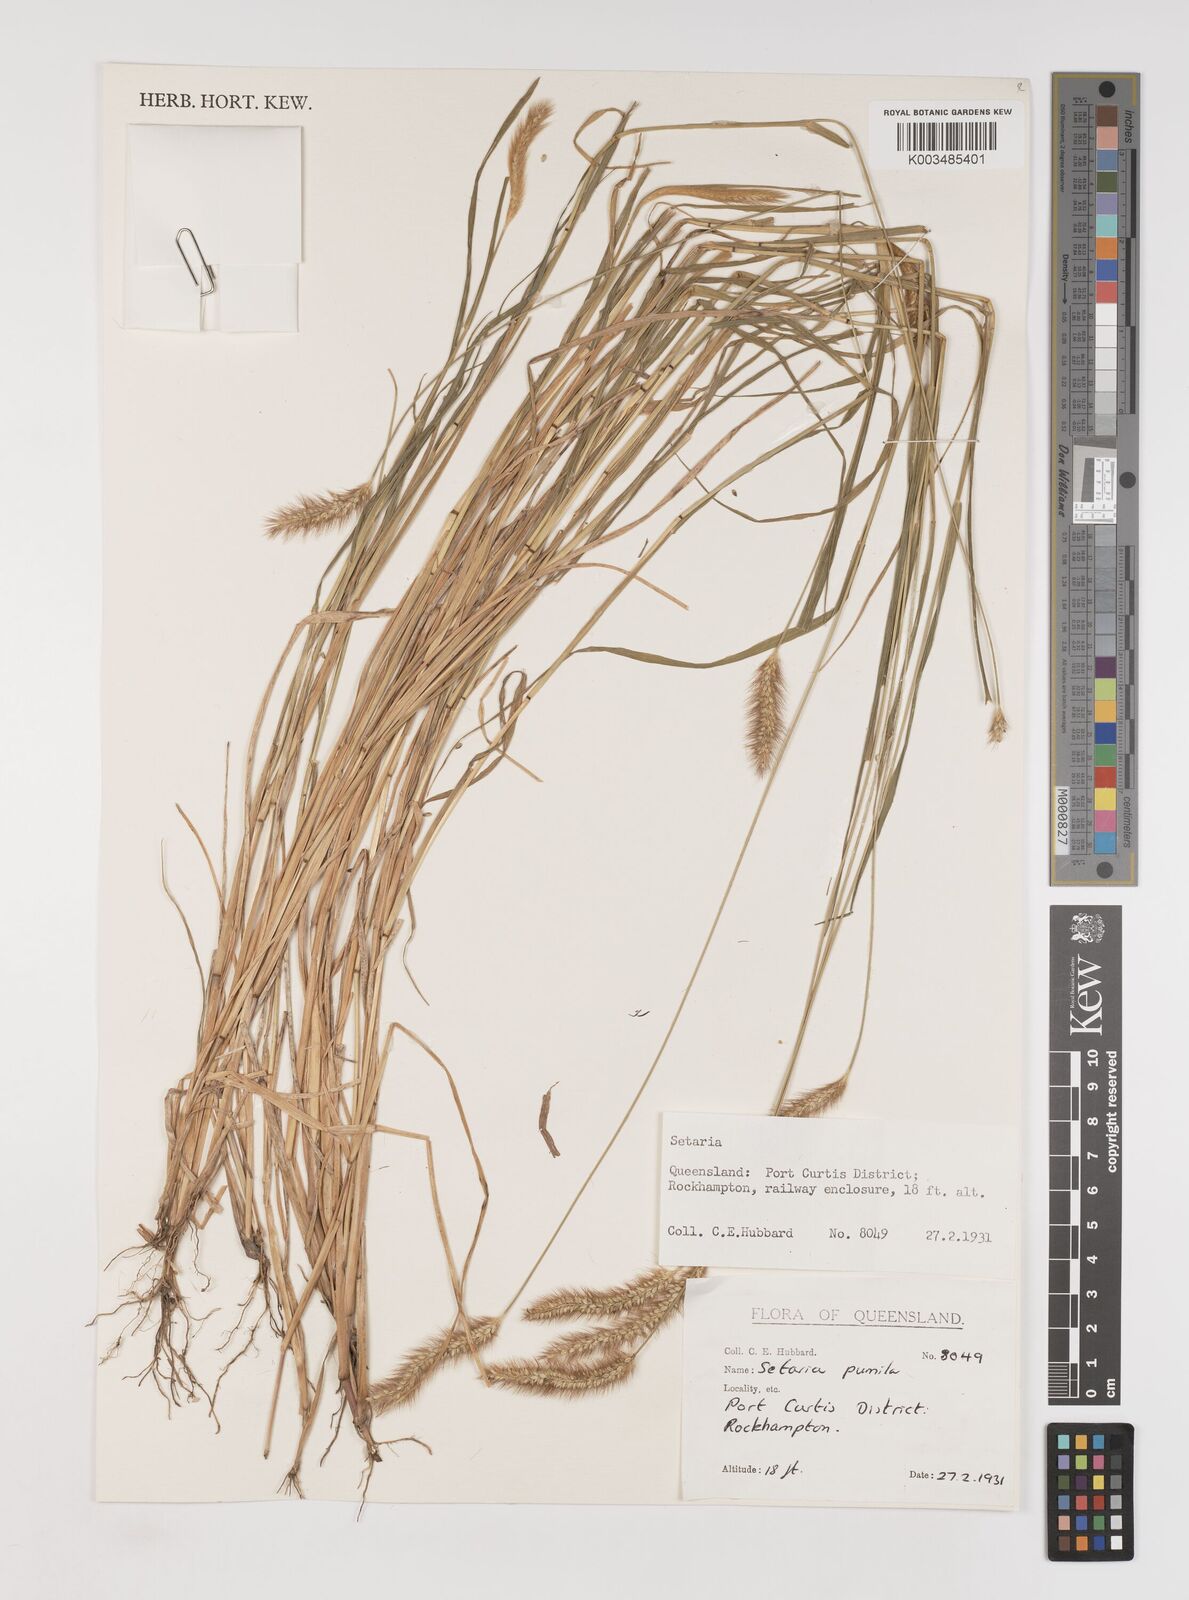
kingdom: Plantae
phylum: Tracheophyta
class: Liliopsida
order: Poales
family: Poaceae
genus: Setaria
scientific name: Setaria pumila
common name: Yellow bristle-grass
